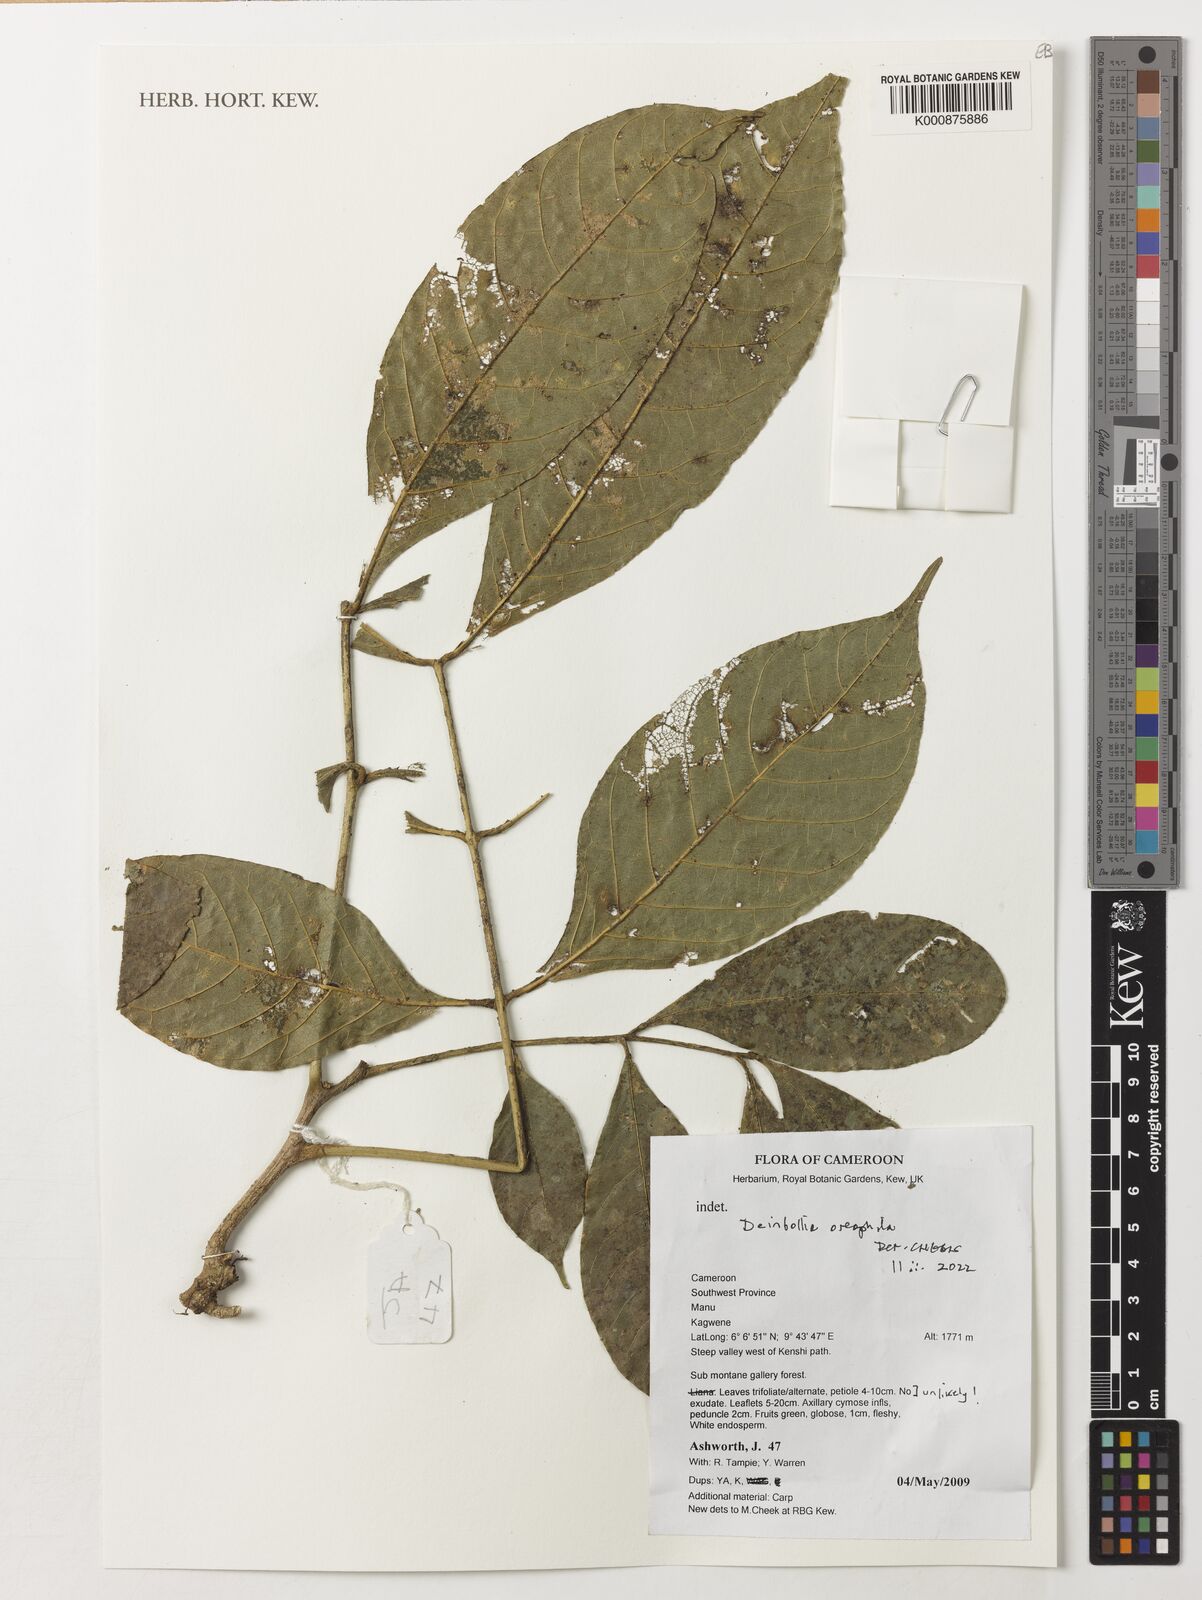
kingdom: Plantae
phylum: Tracheophyta
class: Magnoliopsida
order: Sapindales
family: Sapindaceae
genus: Deinbollia
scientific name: Deinbollia oreophila
